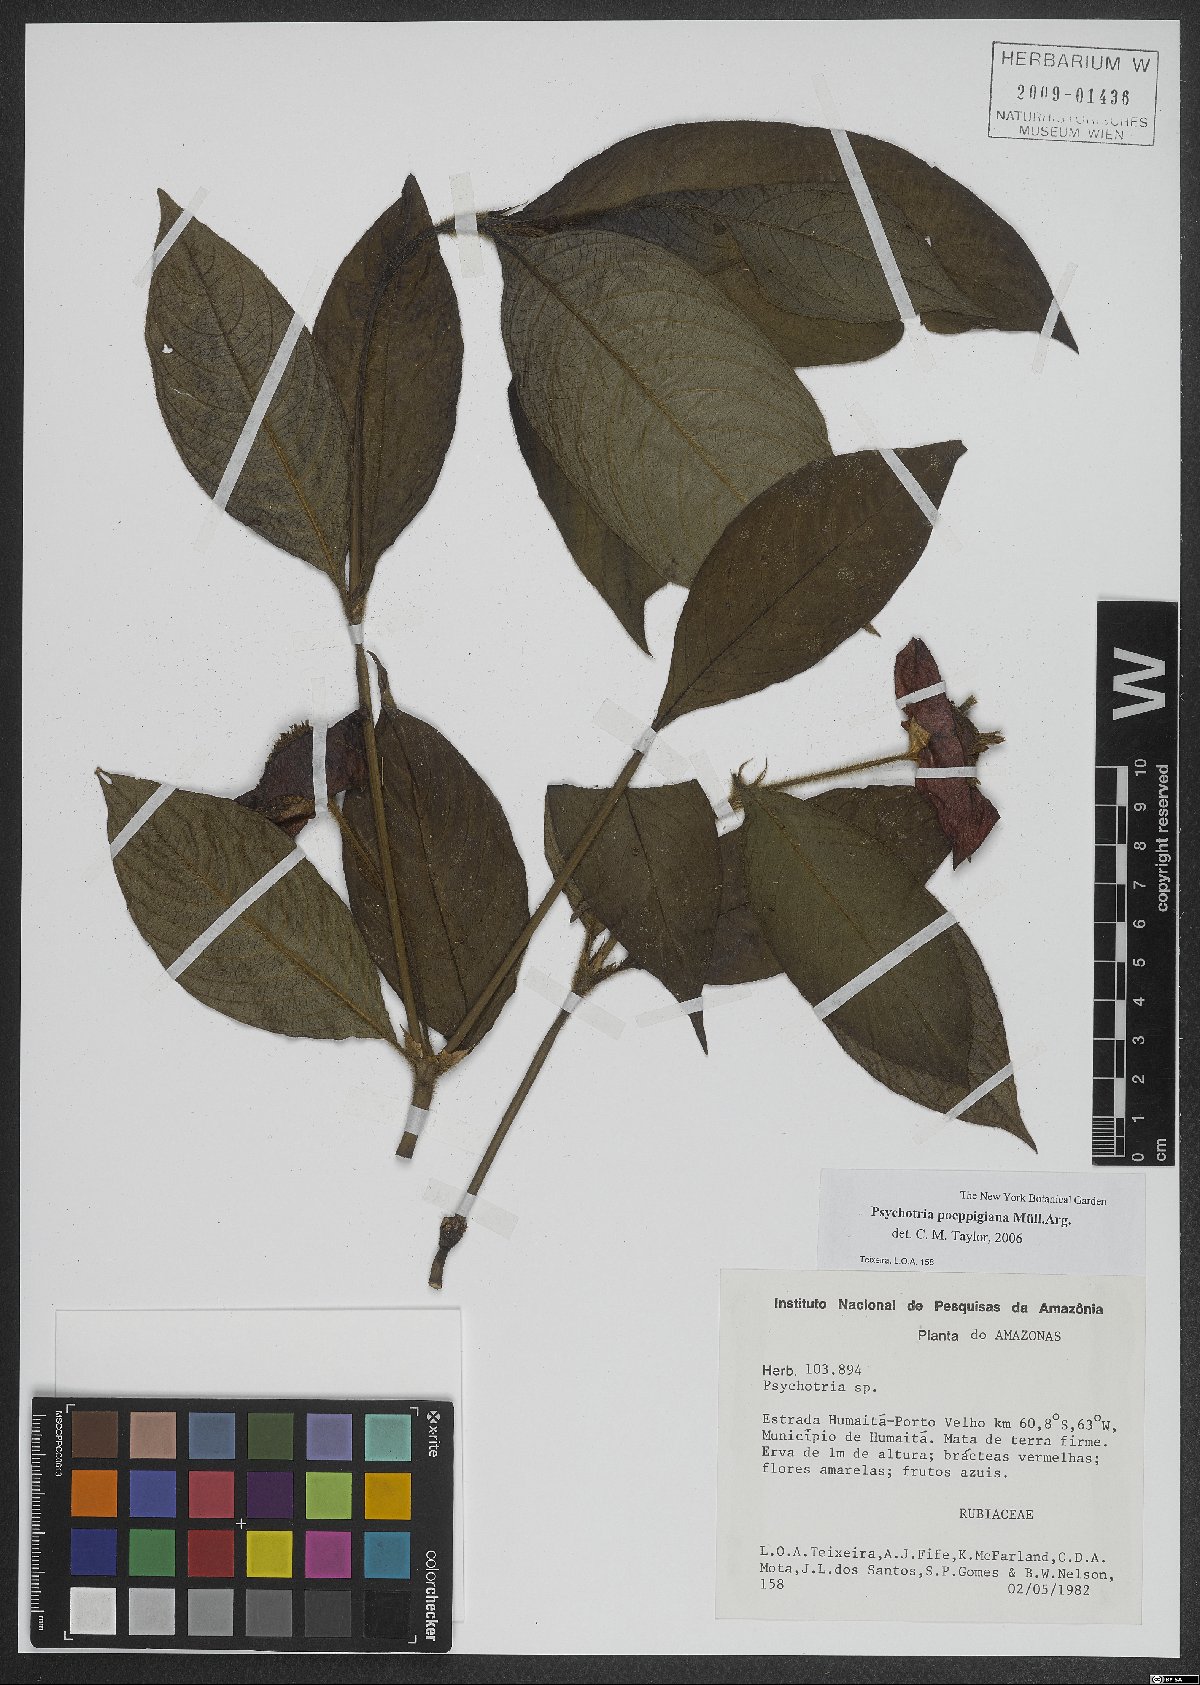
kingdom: Plantae
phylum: Tracheophyta
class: Magnoliopsida
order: Gentianales
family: Rubiaceae
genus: Palicourea
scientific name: Palicourea tomentosa
